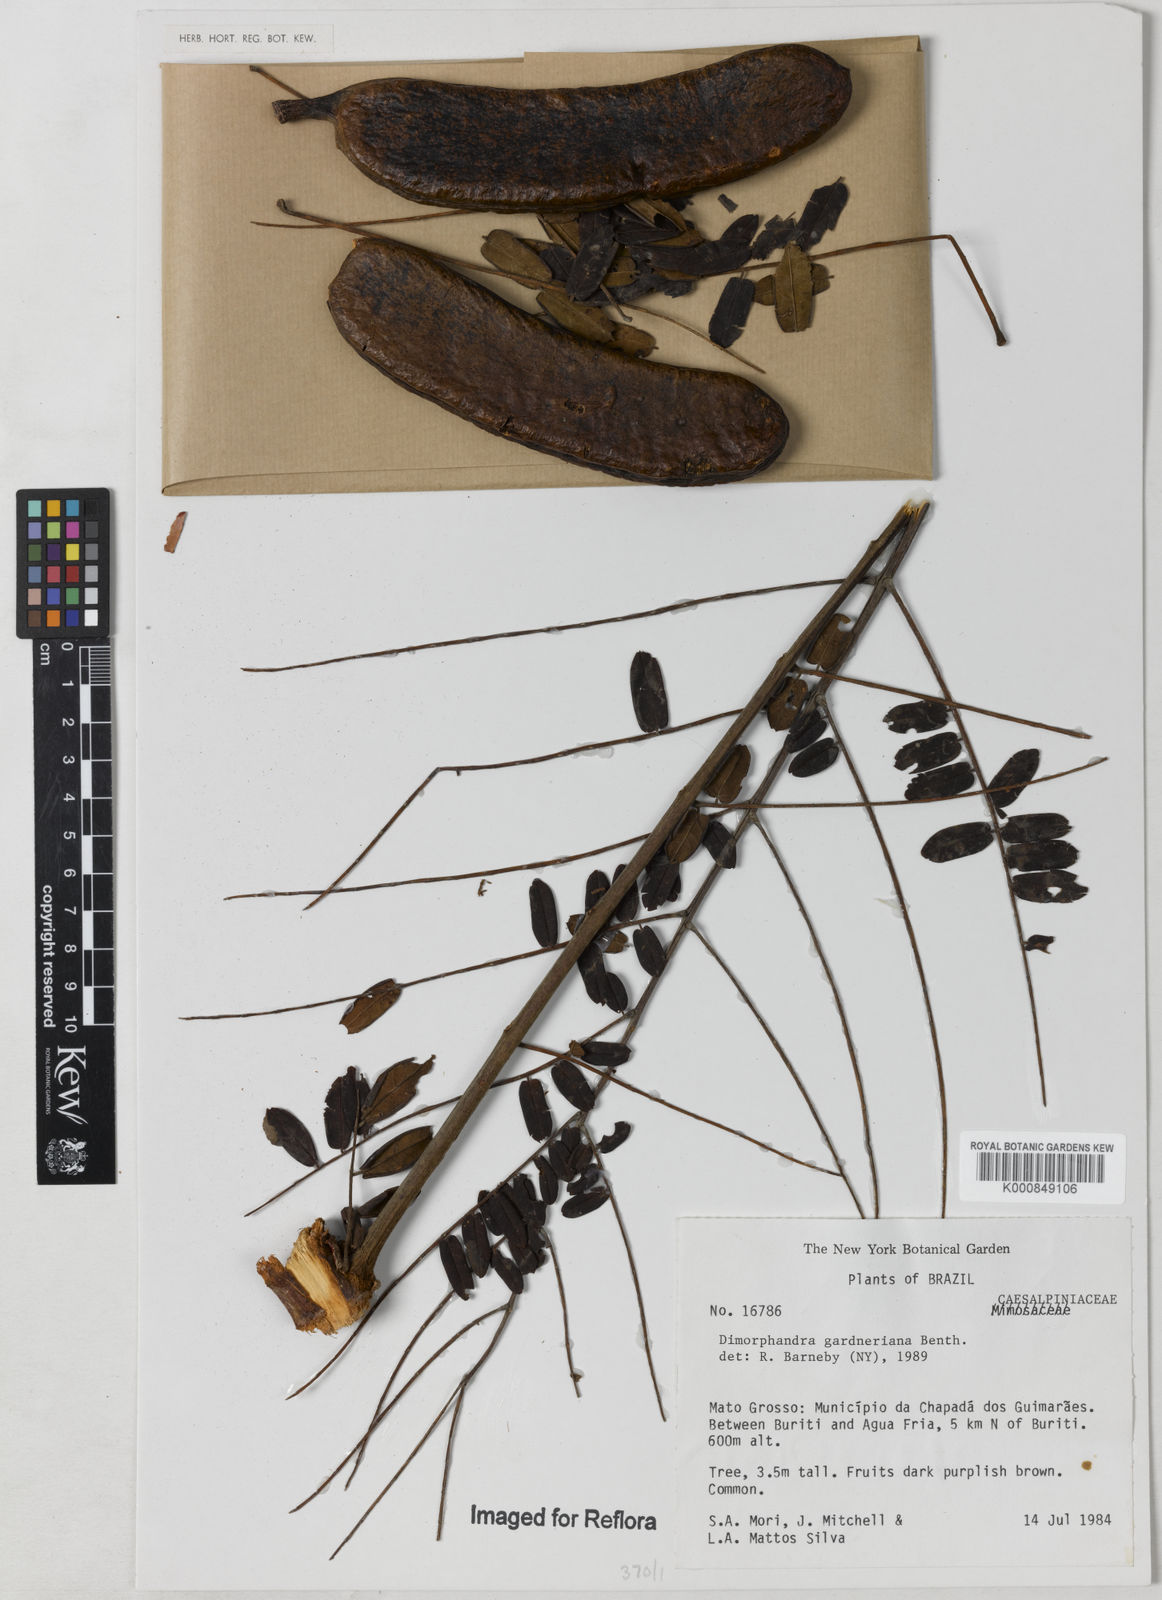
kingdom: Plantae
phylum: Tracheophyta
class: Magnoliopsida
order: Fabales
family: Fabaceae
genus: Dimorphandra
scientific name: Dimorphandra gardneriana
